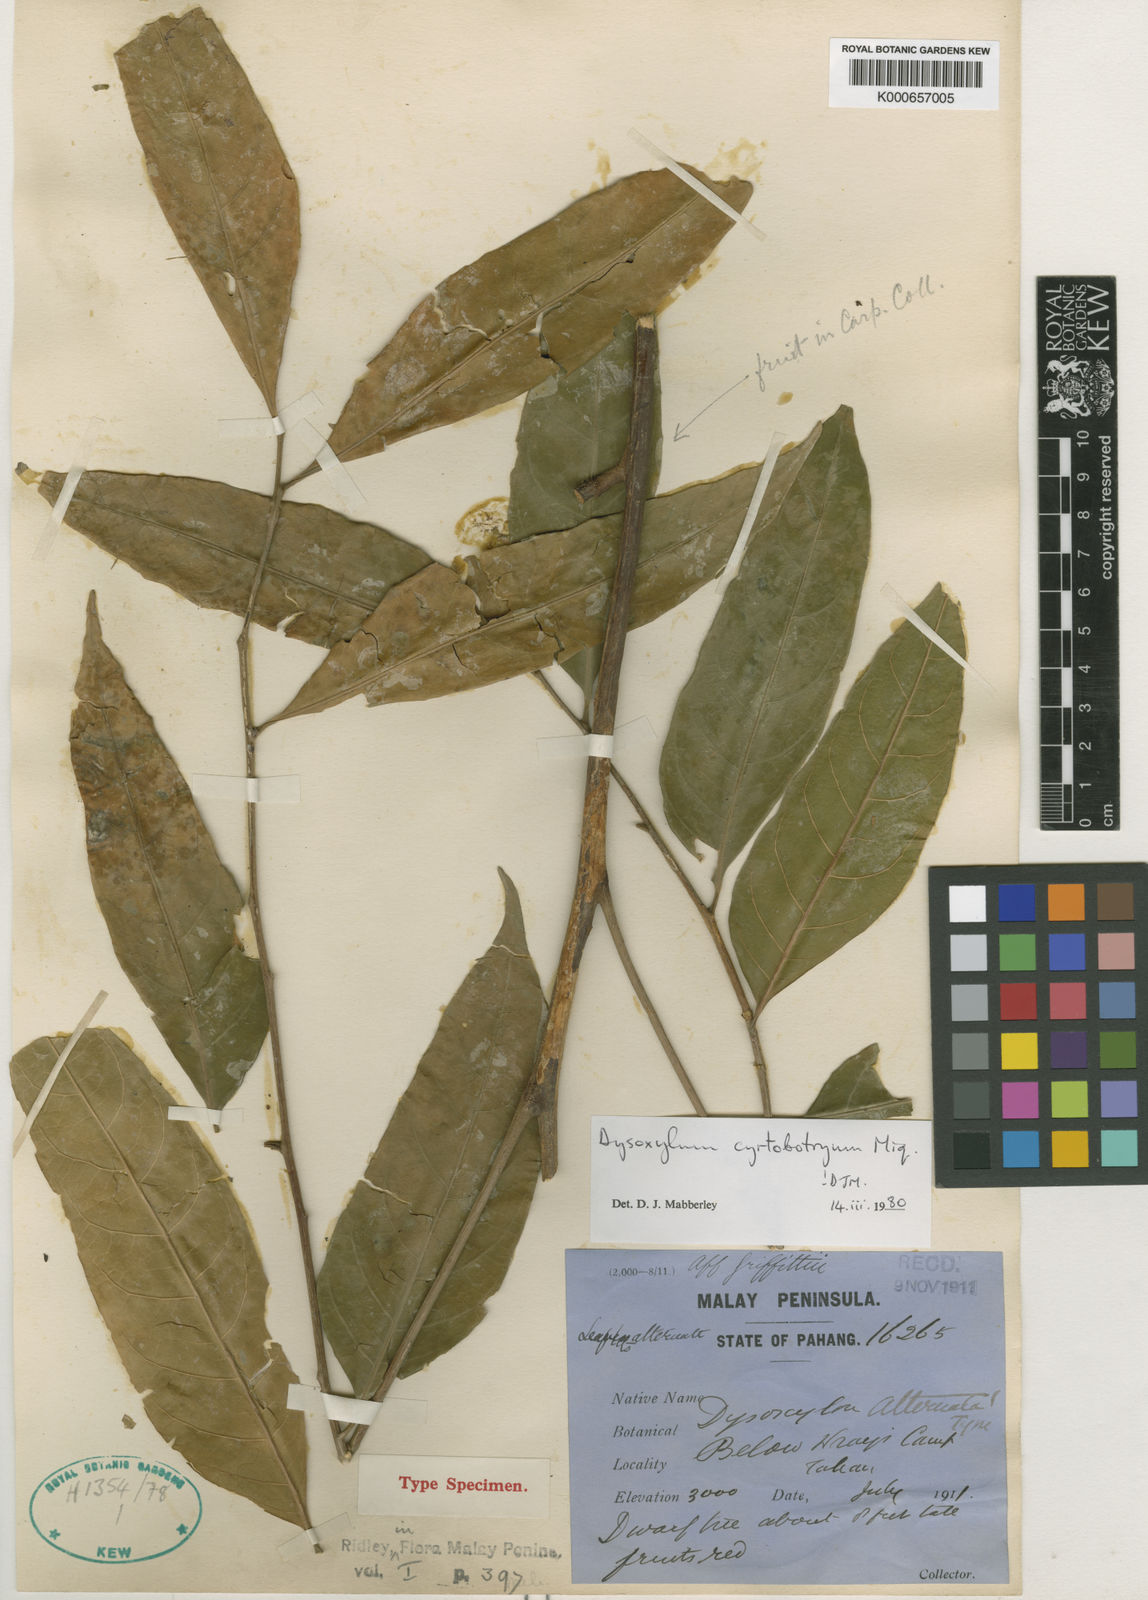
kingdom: Plantae
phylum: Tracheophyta
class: Magnoliopsida
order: Sapindales
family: Meliaceae
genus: Dysoxylum
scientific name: Dysoxylum cyrtobotryum
